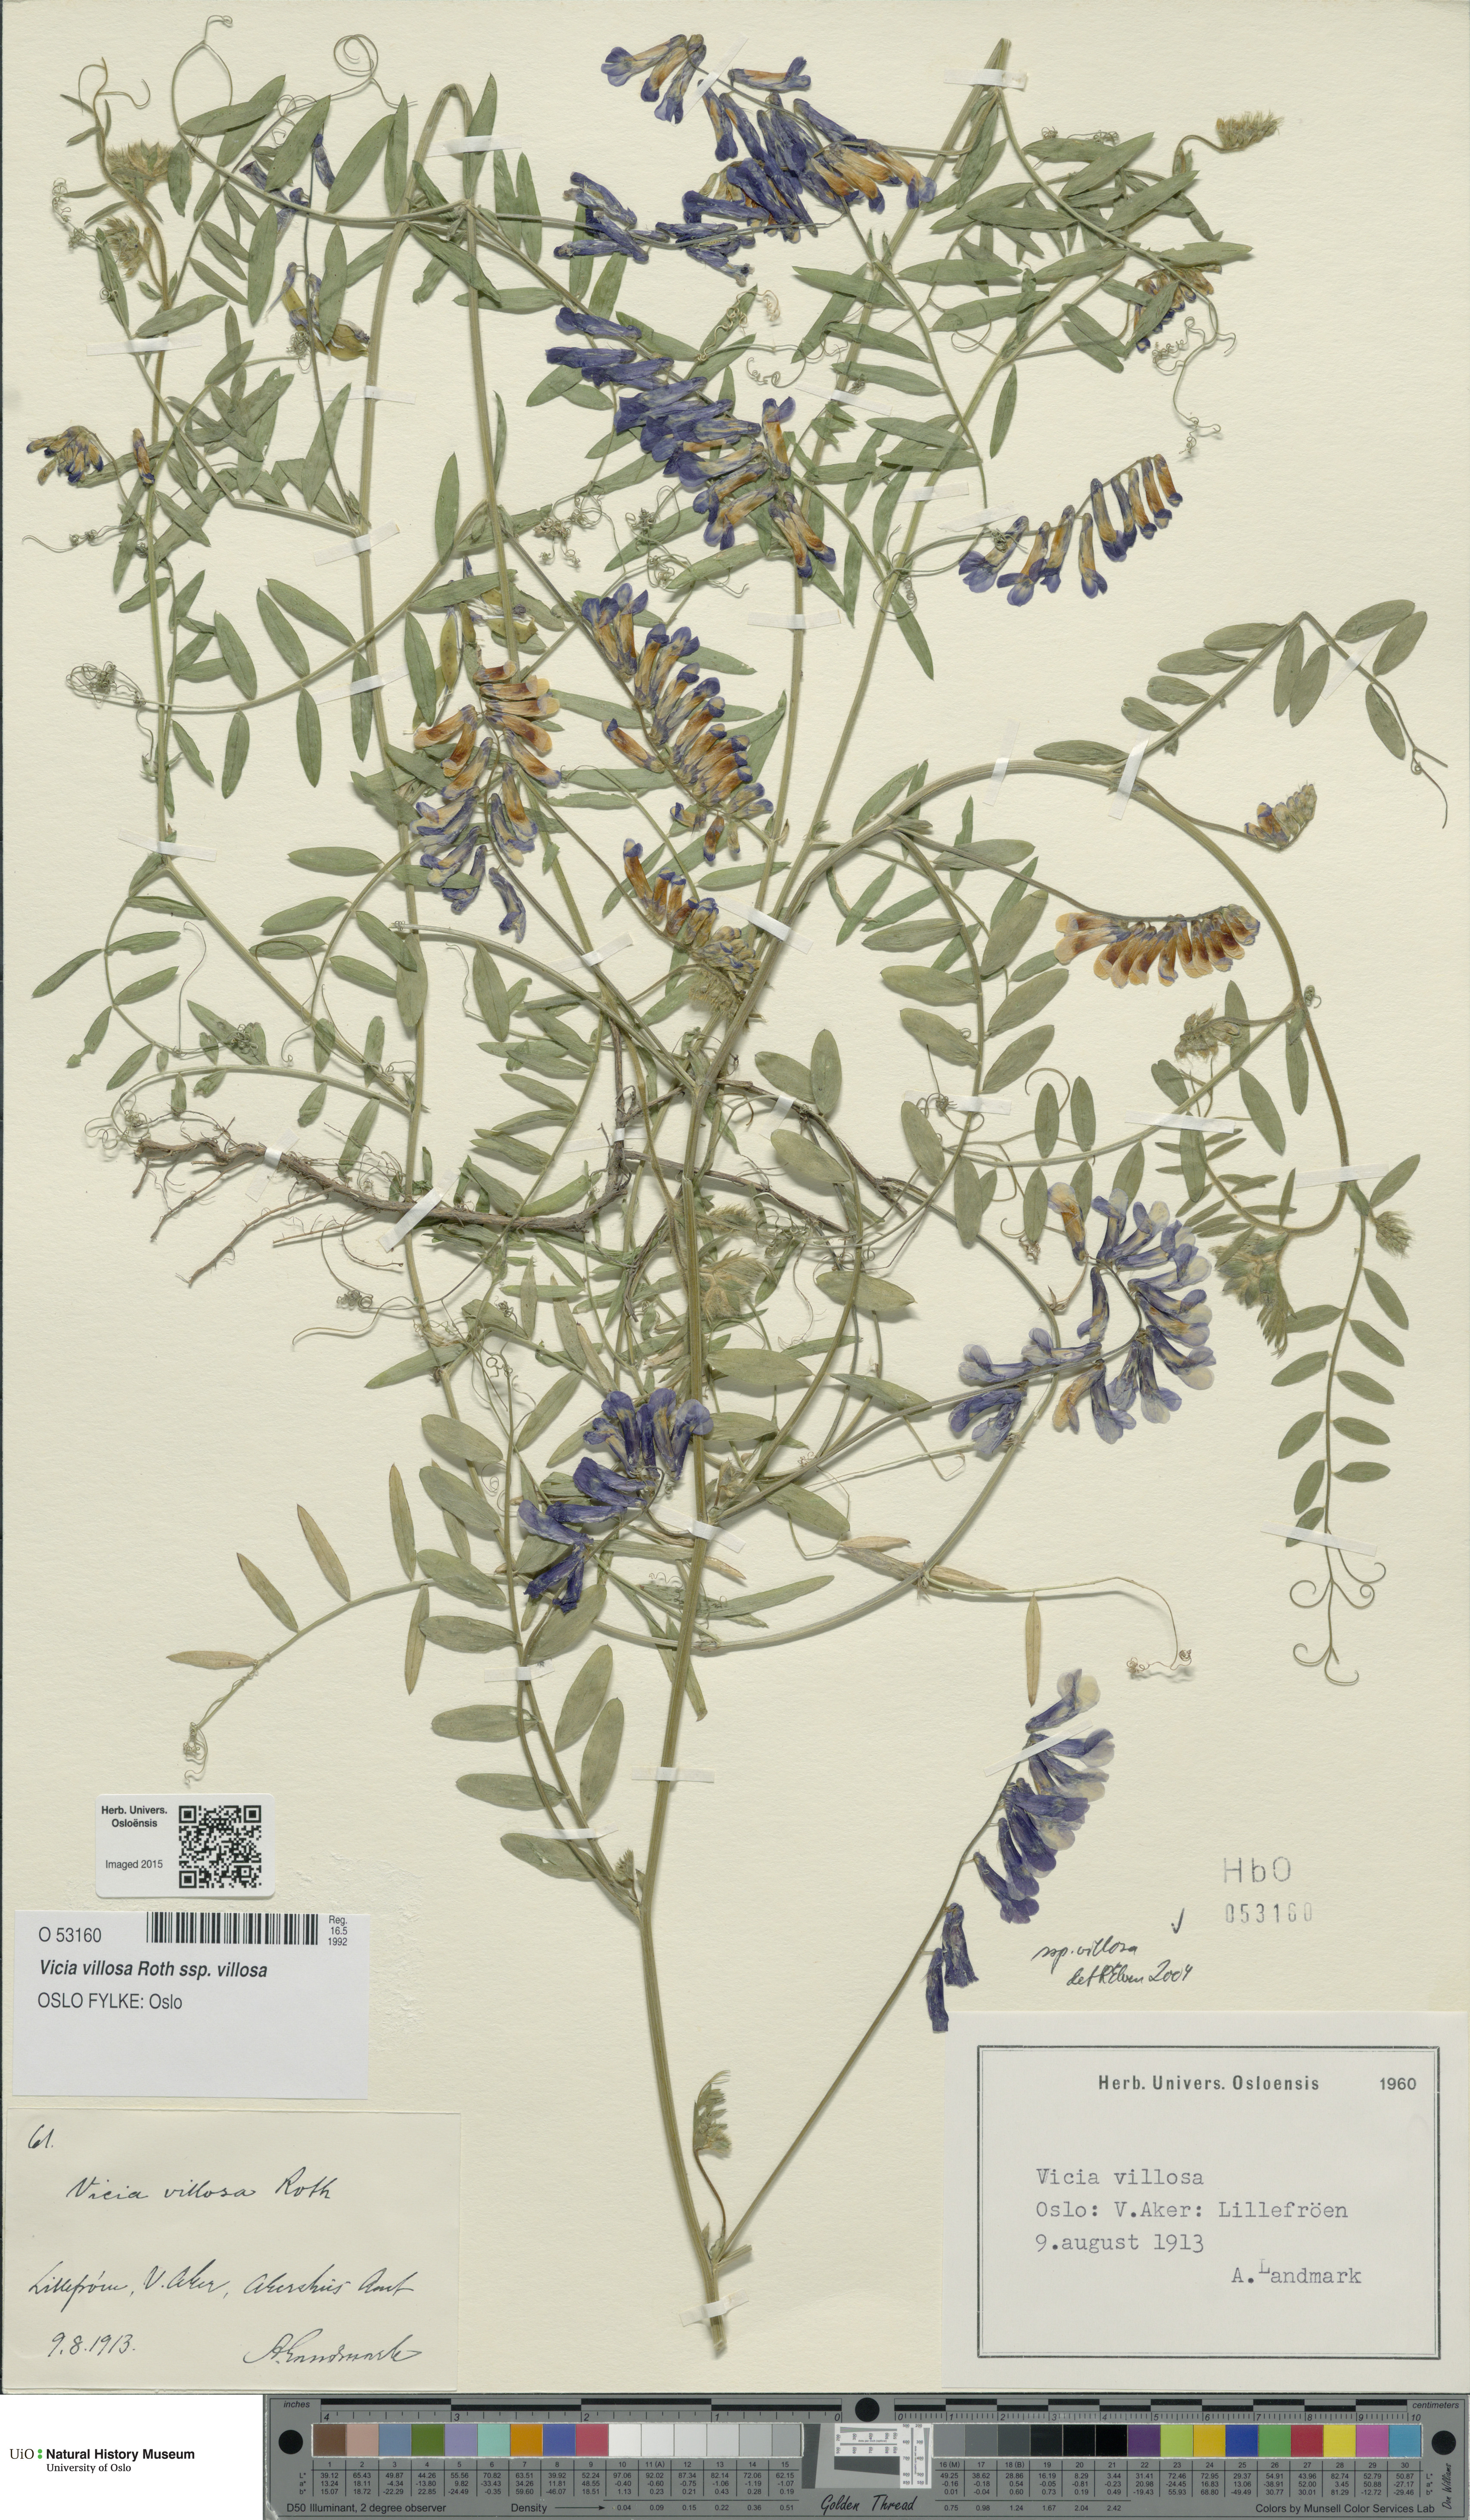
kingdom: Plantae
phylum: Tracheophyta
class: Magnoliopsida
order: Fabales
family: Fabaceae
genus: Vicia
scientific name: Vicia villosa
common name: Fodder vetch
